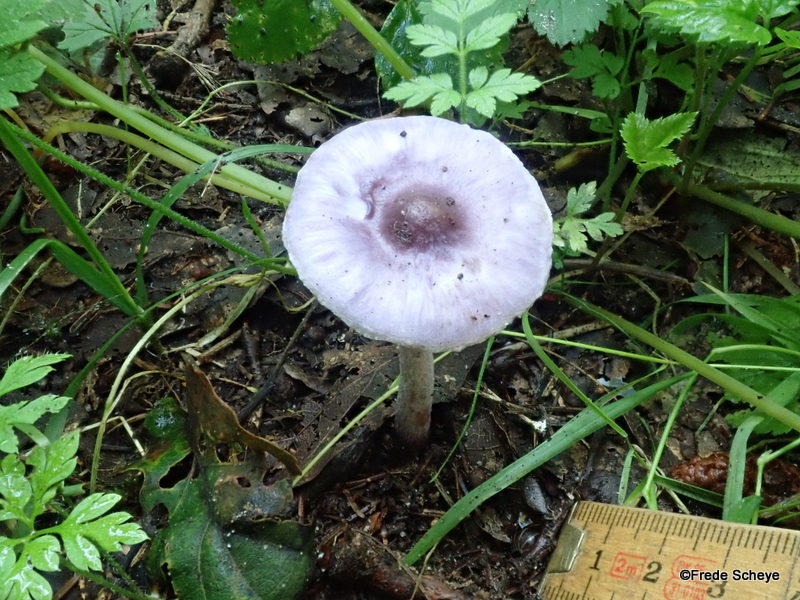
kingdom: Fungi
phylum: Basidiomycota
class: Agaricomycetes
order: Agaricales
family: Inocybaceae
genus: Inocybe
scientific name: Inocybe geophylla
